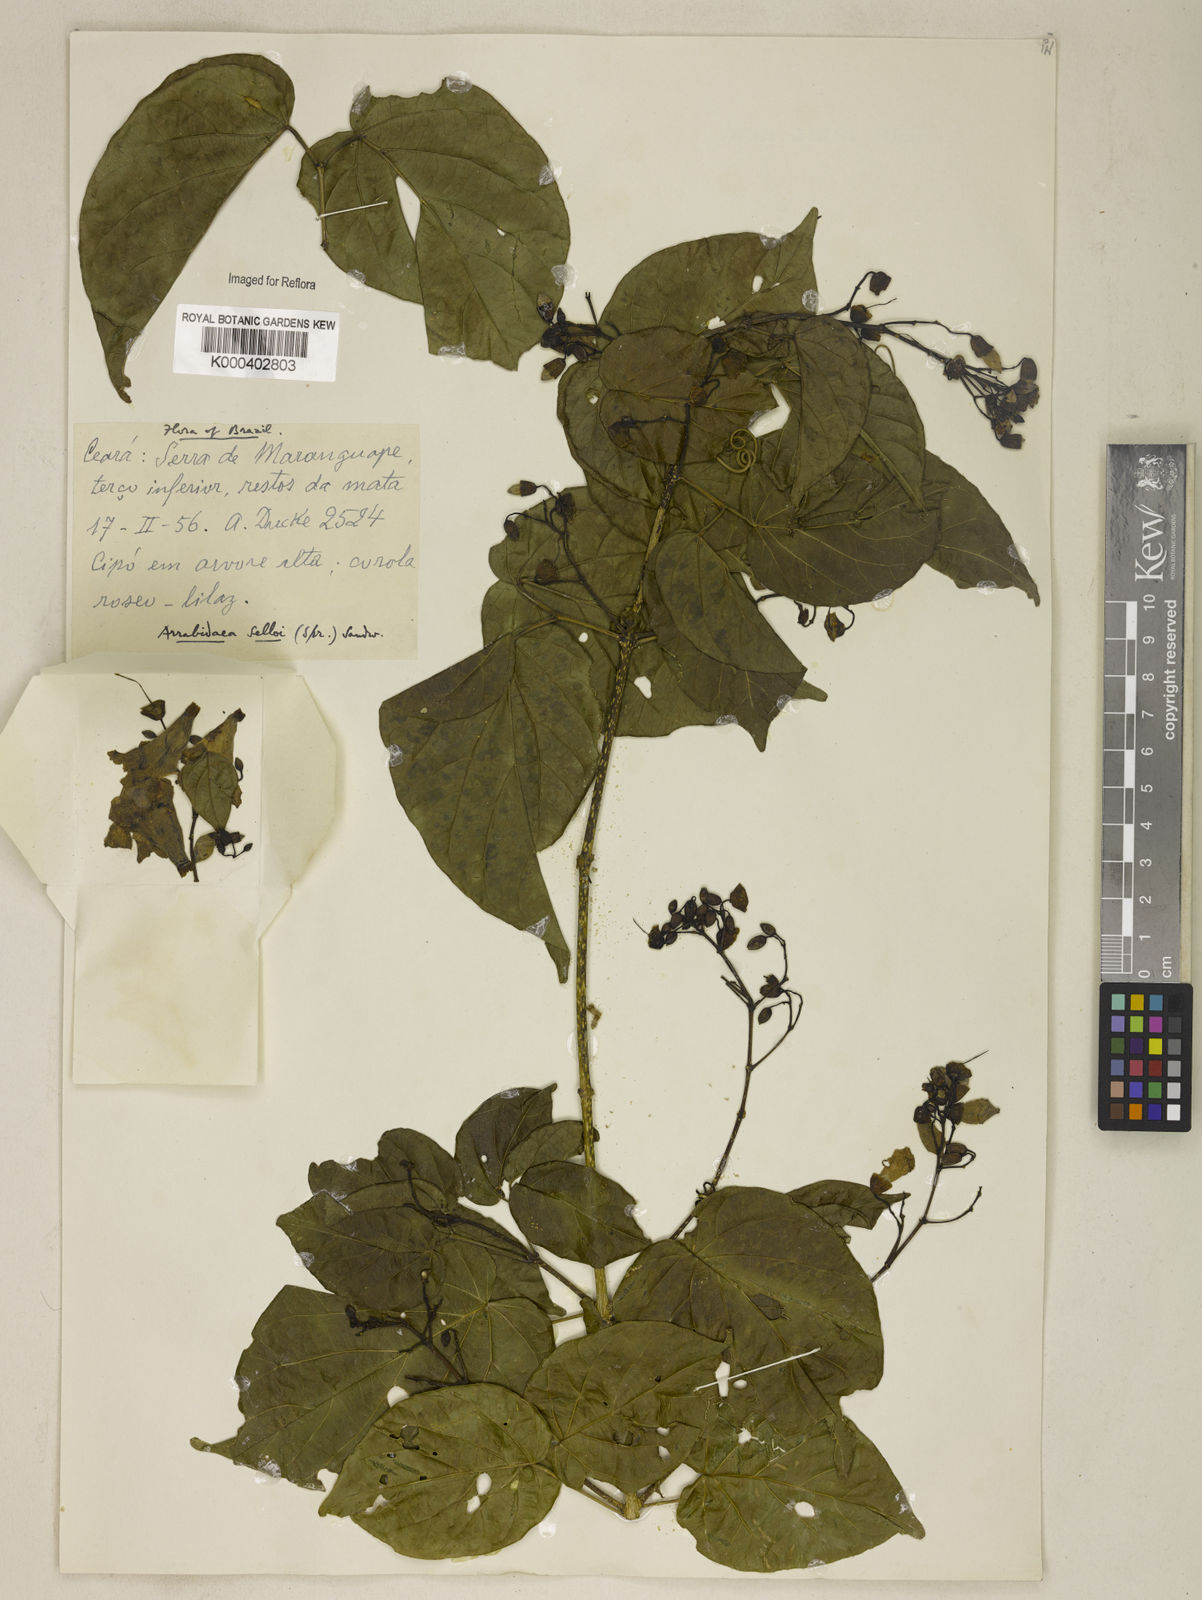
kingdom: Plantae
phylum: Tracheophyta
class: Magnoliopsida
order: Lamiales
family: Bignoniaceae
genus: Tanaecium
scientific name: Tanaecium selloi
